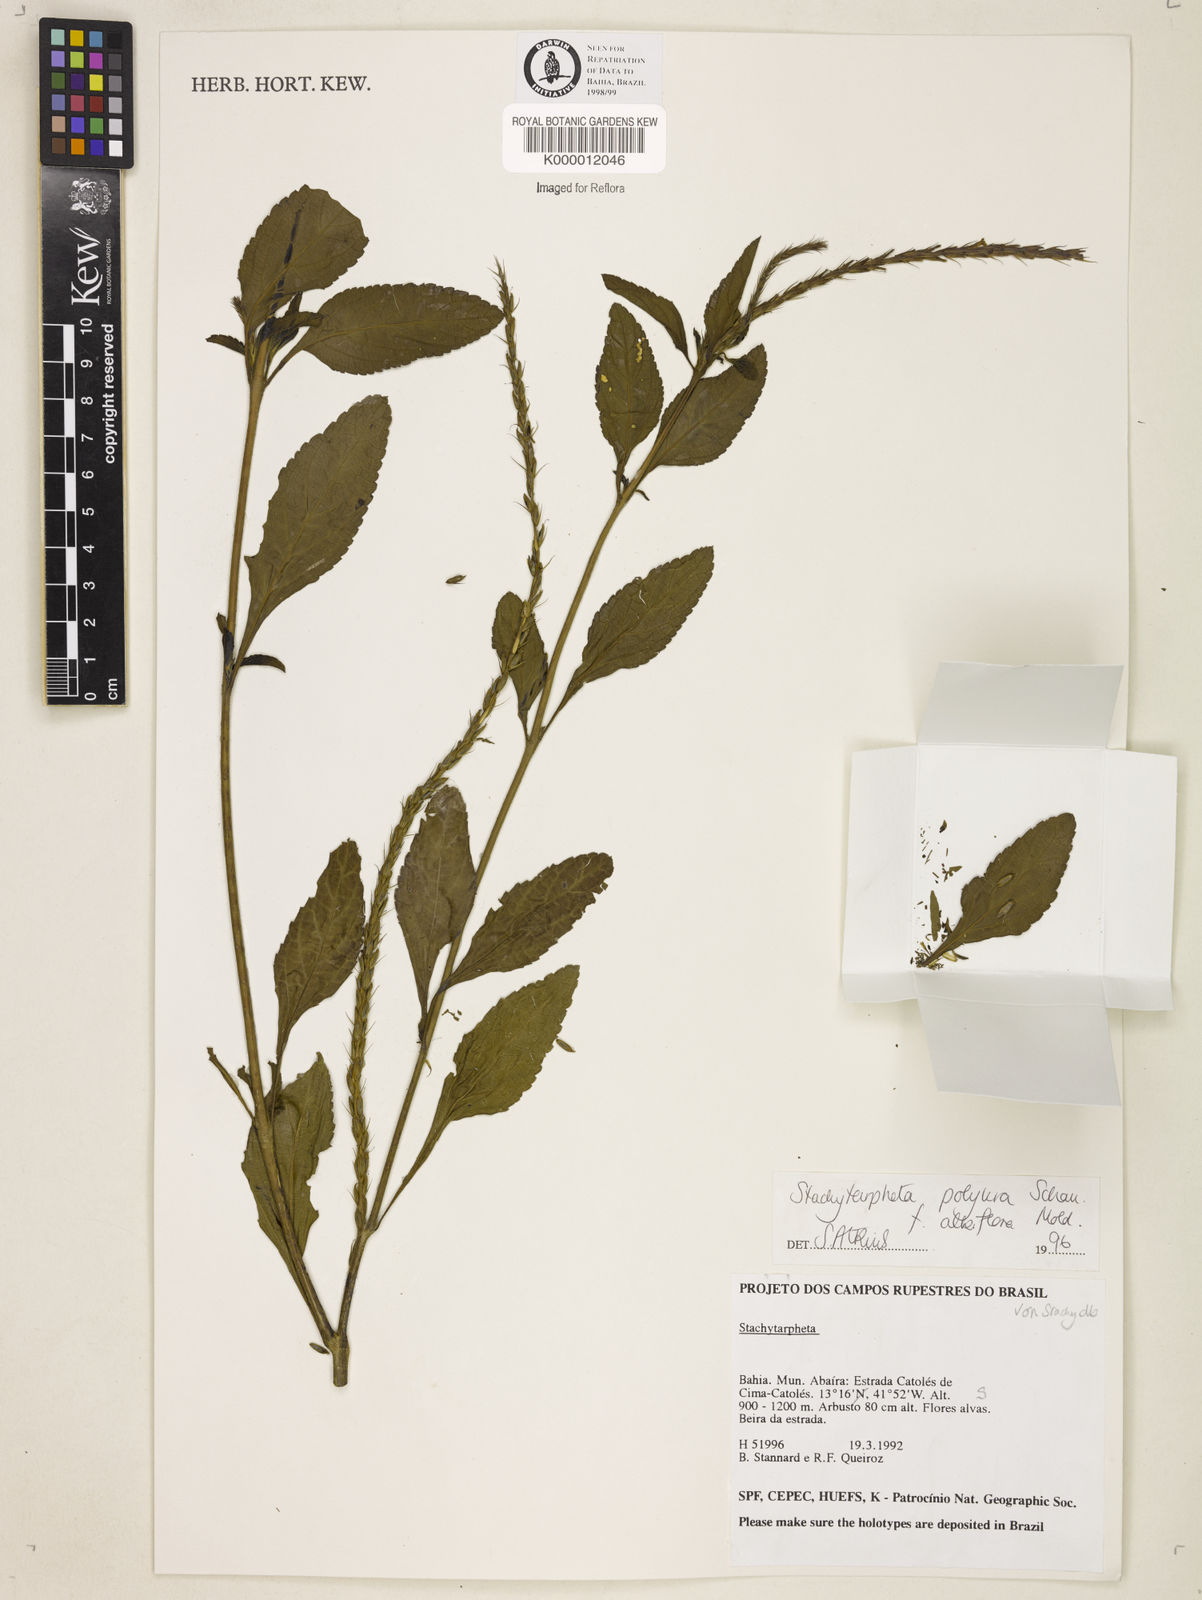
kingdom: Plantae
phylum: Tracheophyta
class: Magnoliopsida
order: Lamiales
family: Verbenaceae
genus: Stachytarpheta
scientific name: Stachytarpheta polyura
